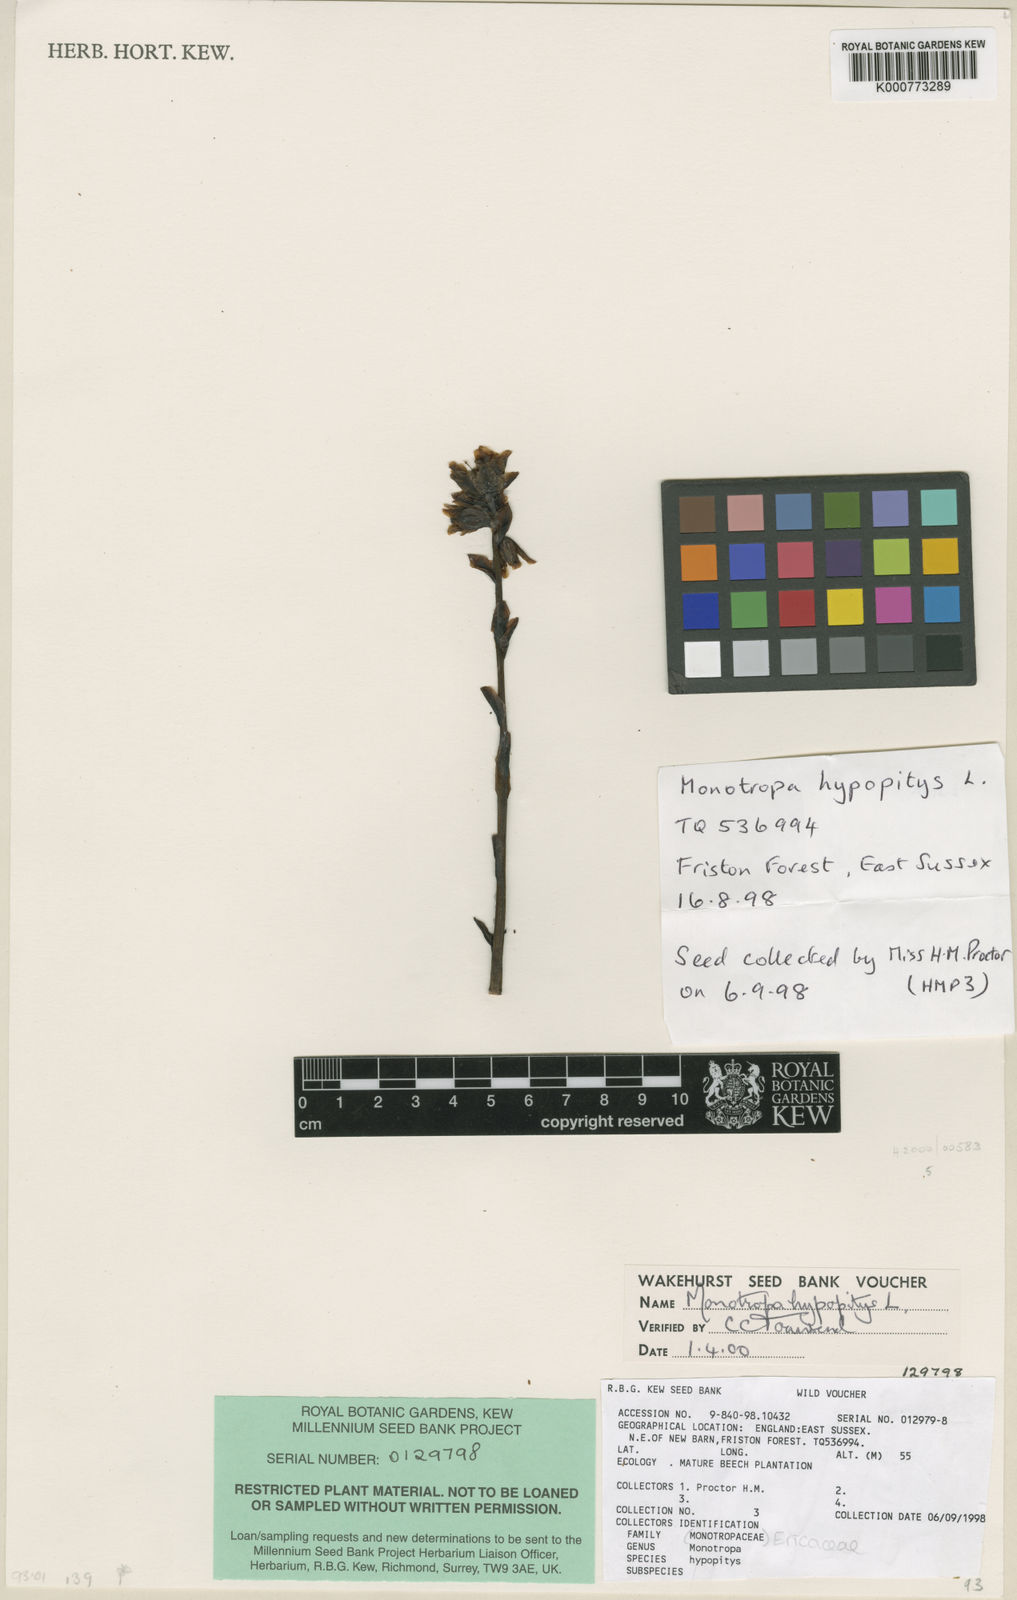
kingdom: Plantae
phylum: Tracheophyta
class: Magnoliopsida
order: Ericales
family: Ericaceae
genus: Monotropa
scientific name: Monotropa
